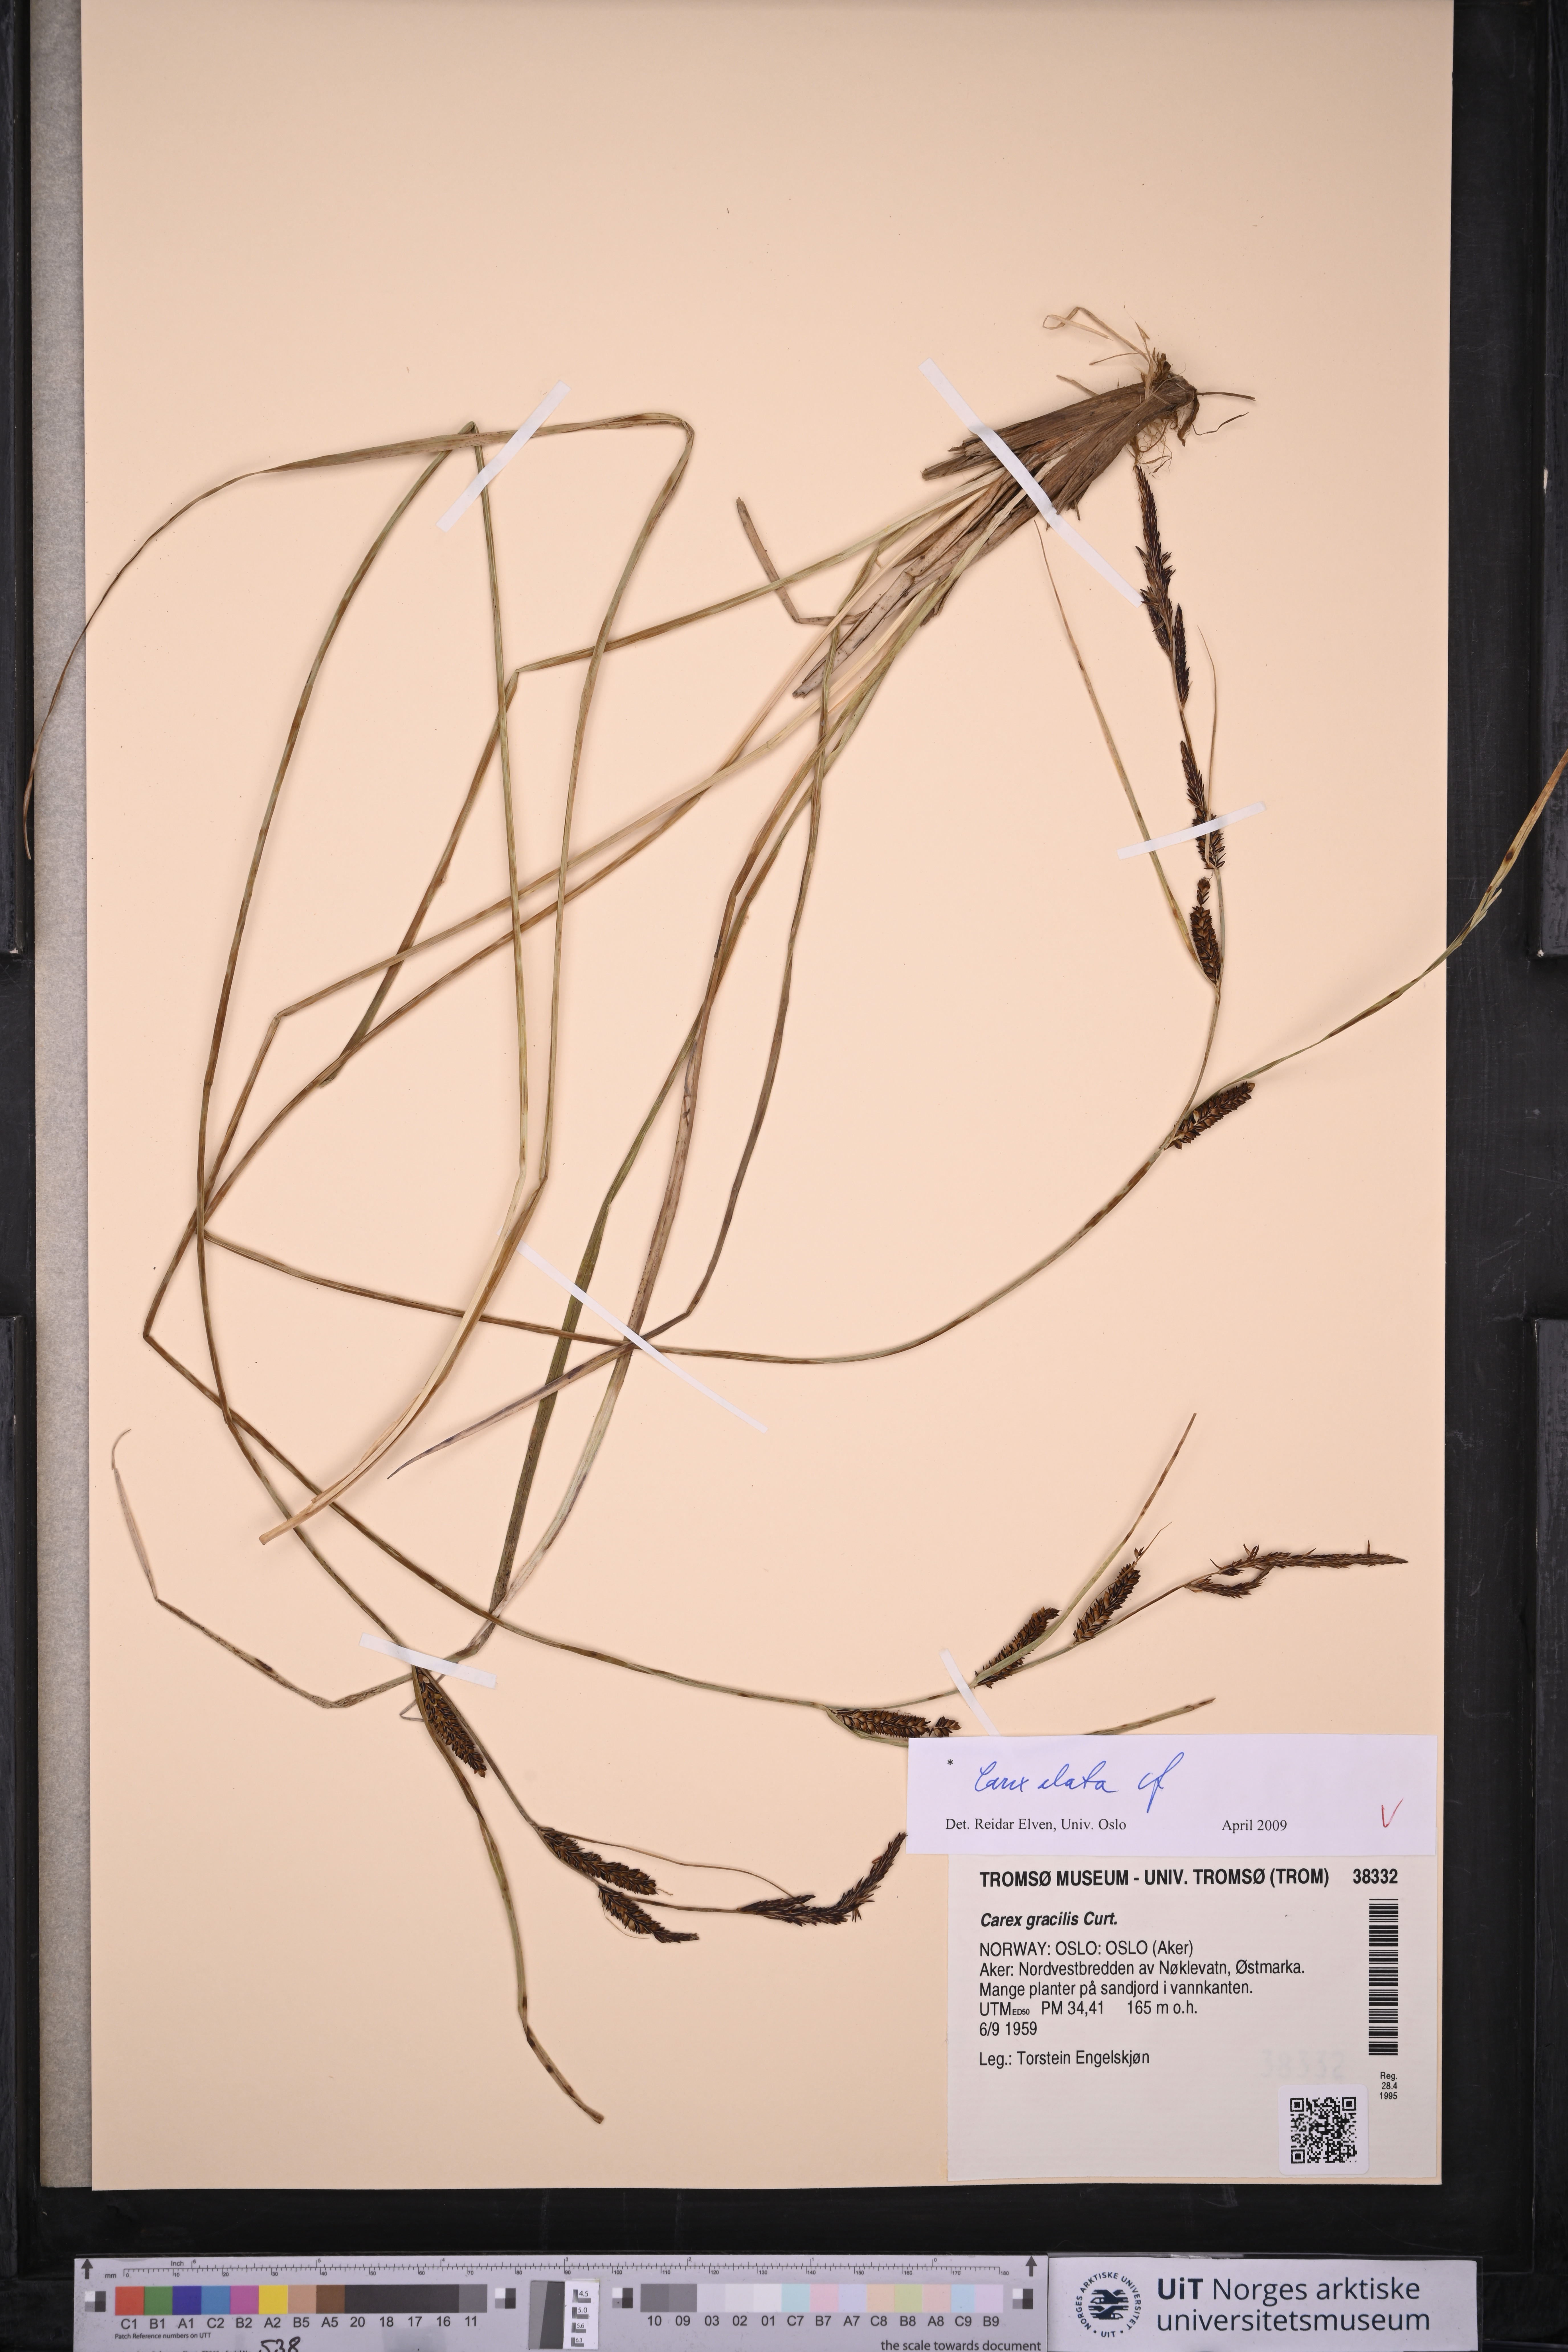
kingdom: Plantae
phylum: Tracheophyta
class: Liliopsida
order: Poales
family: Cyperaceae
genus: Carex
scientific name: Carex elata
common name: Tufted sedge
